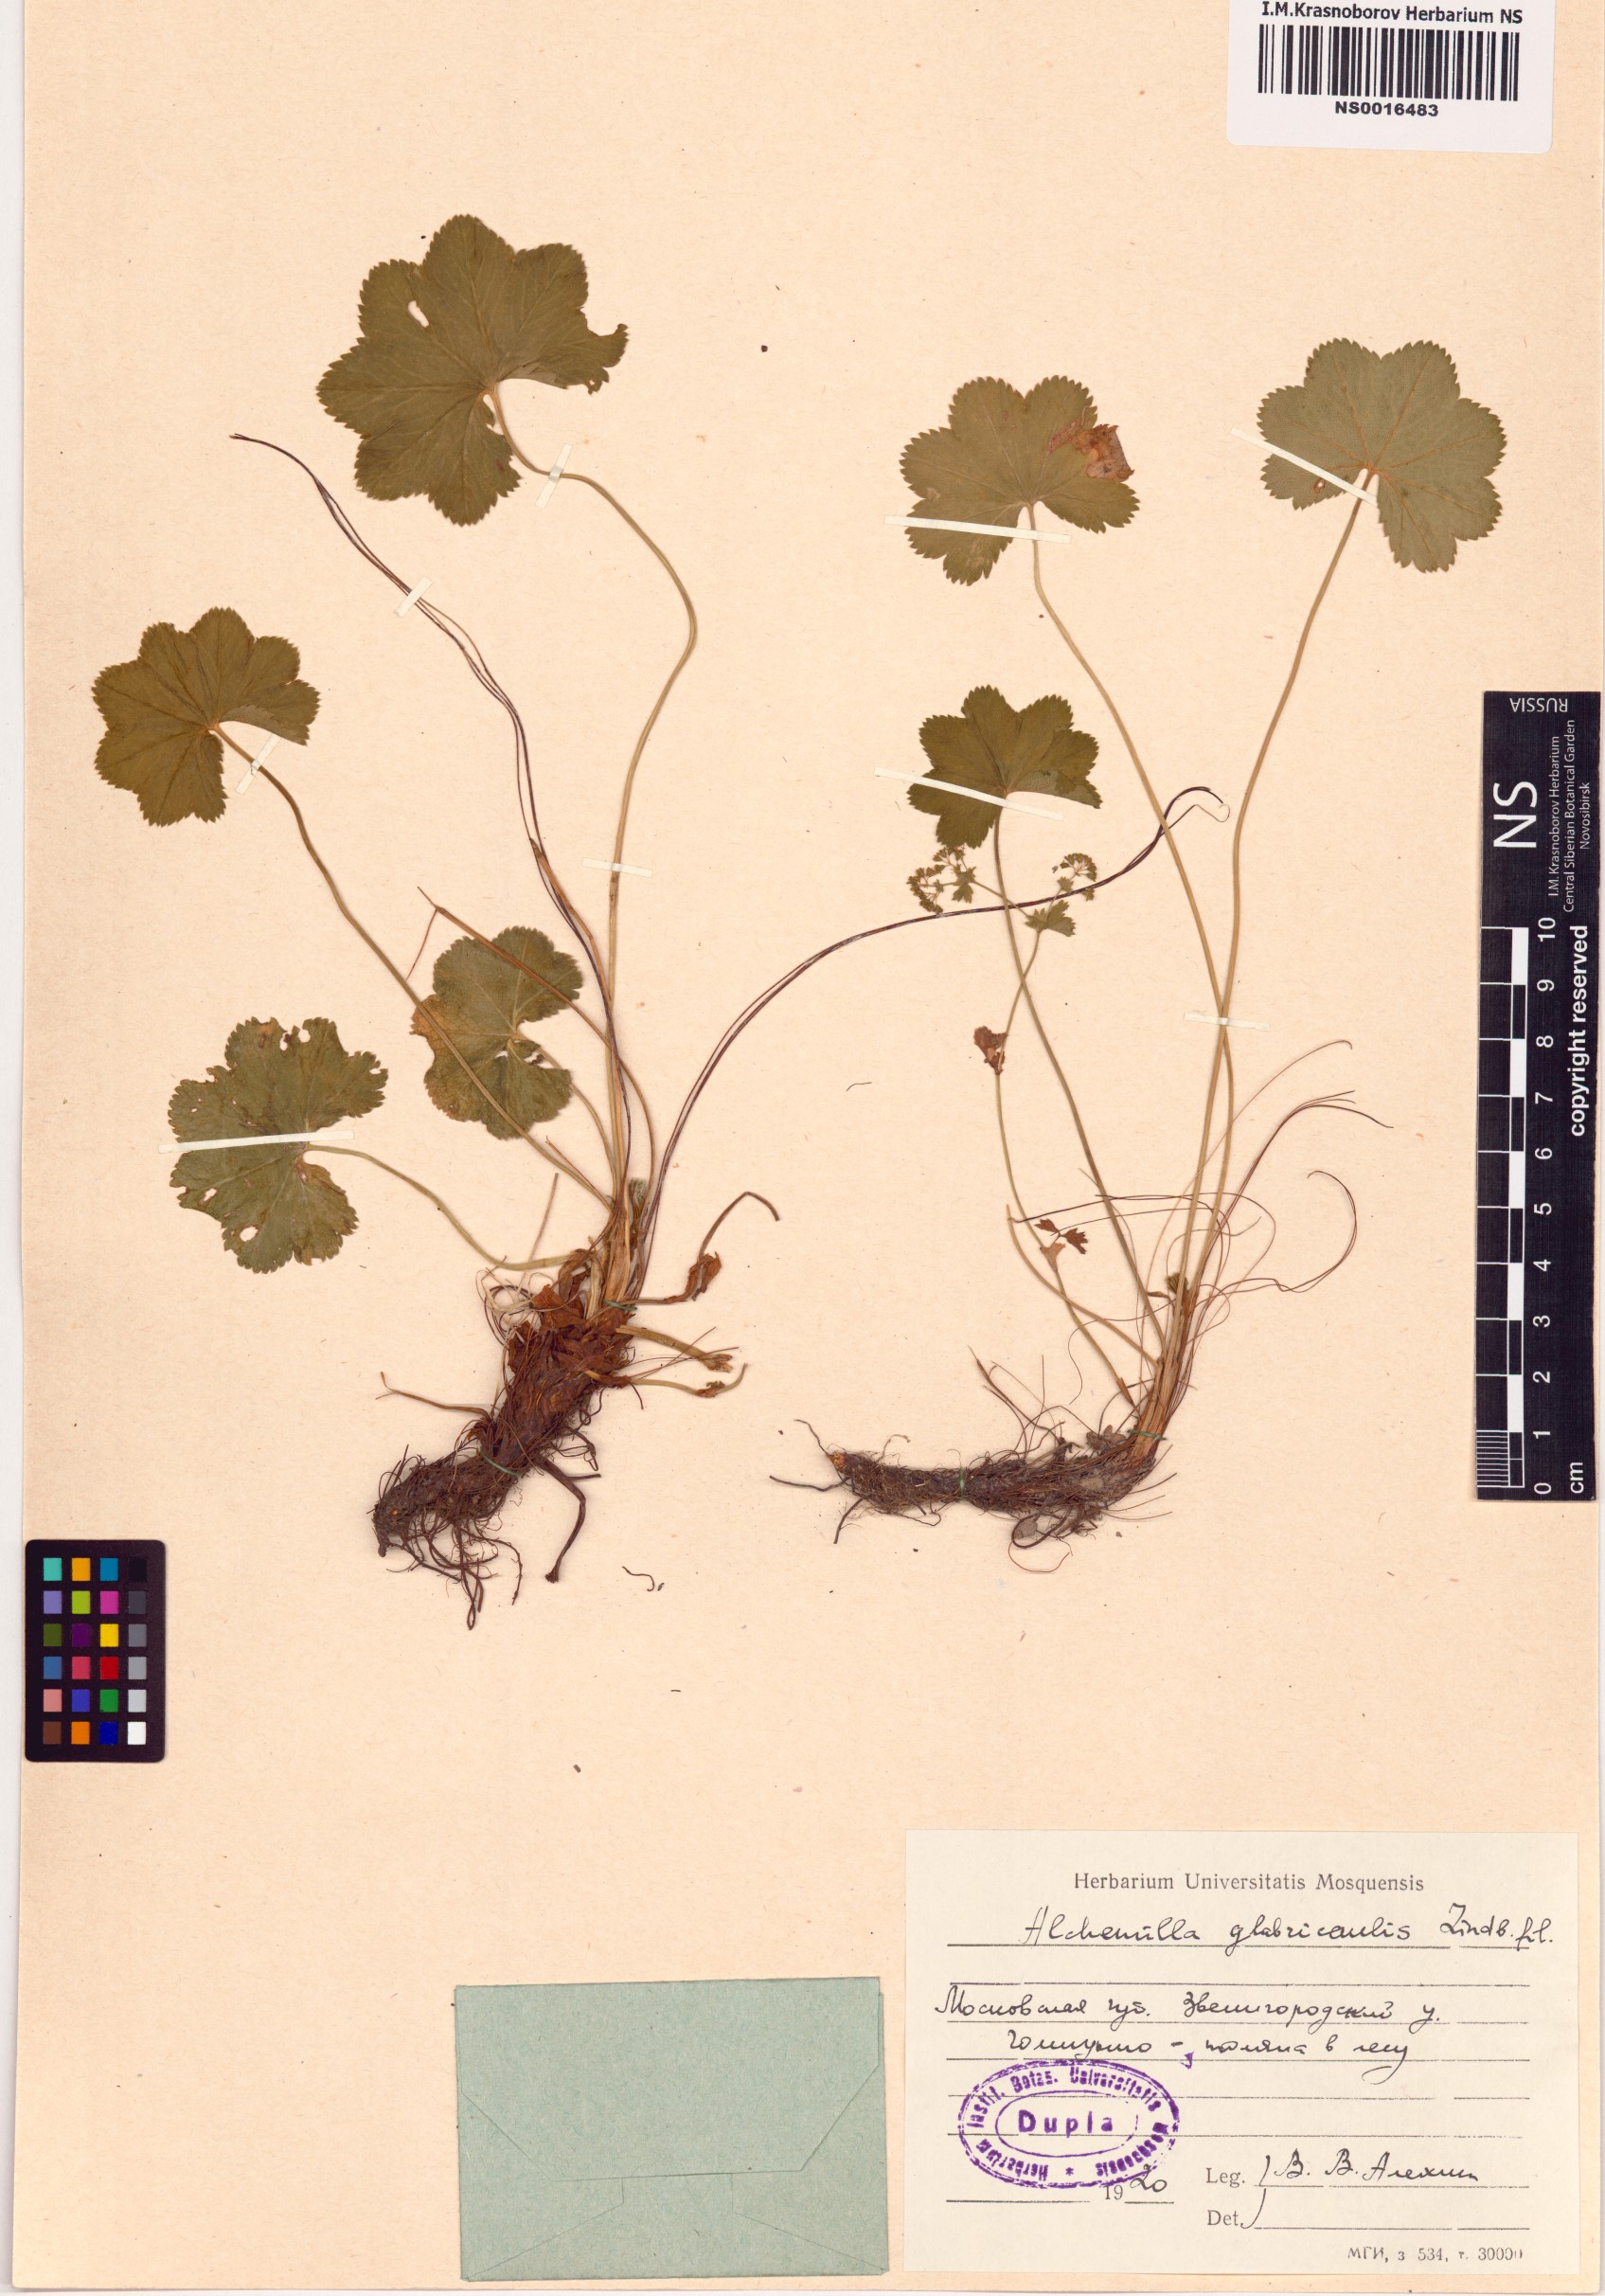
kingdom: Plantae
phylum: Tracheophyta
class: Magnoliopsida
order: Rosales
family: Rosaceae
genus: Alchemilla
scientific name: Alchemilla glabricaulis
